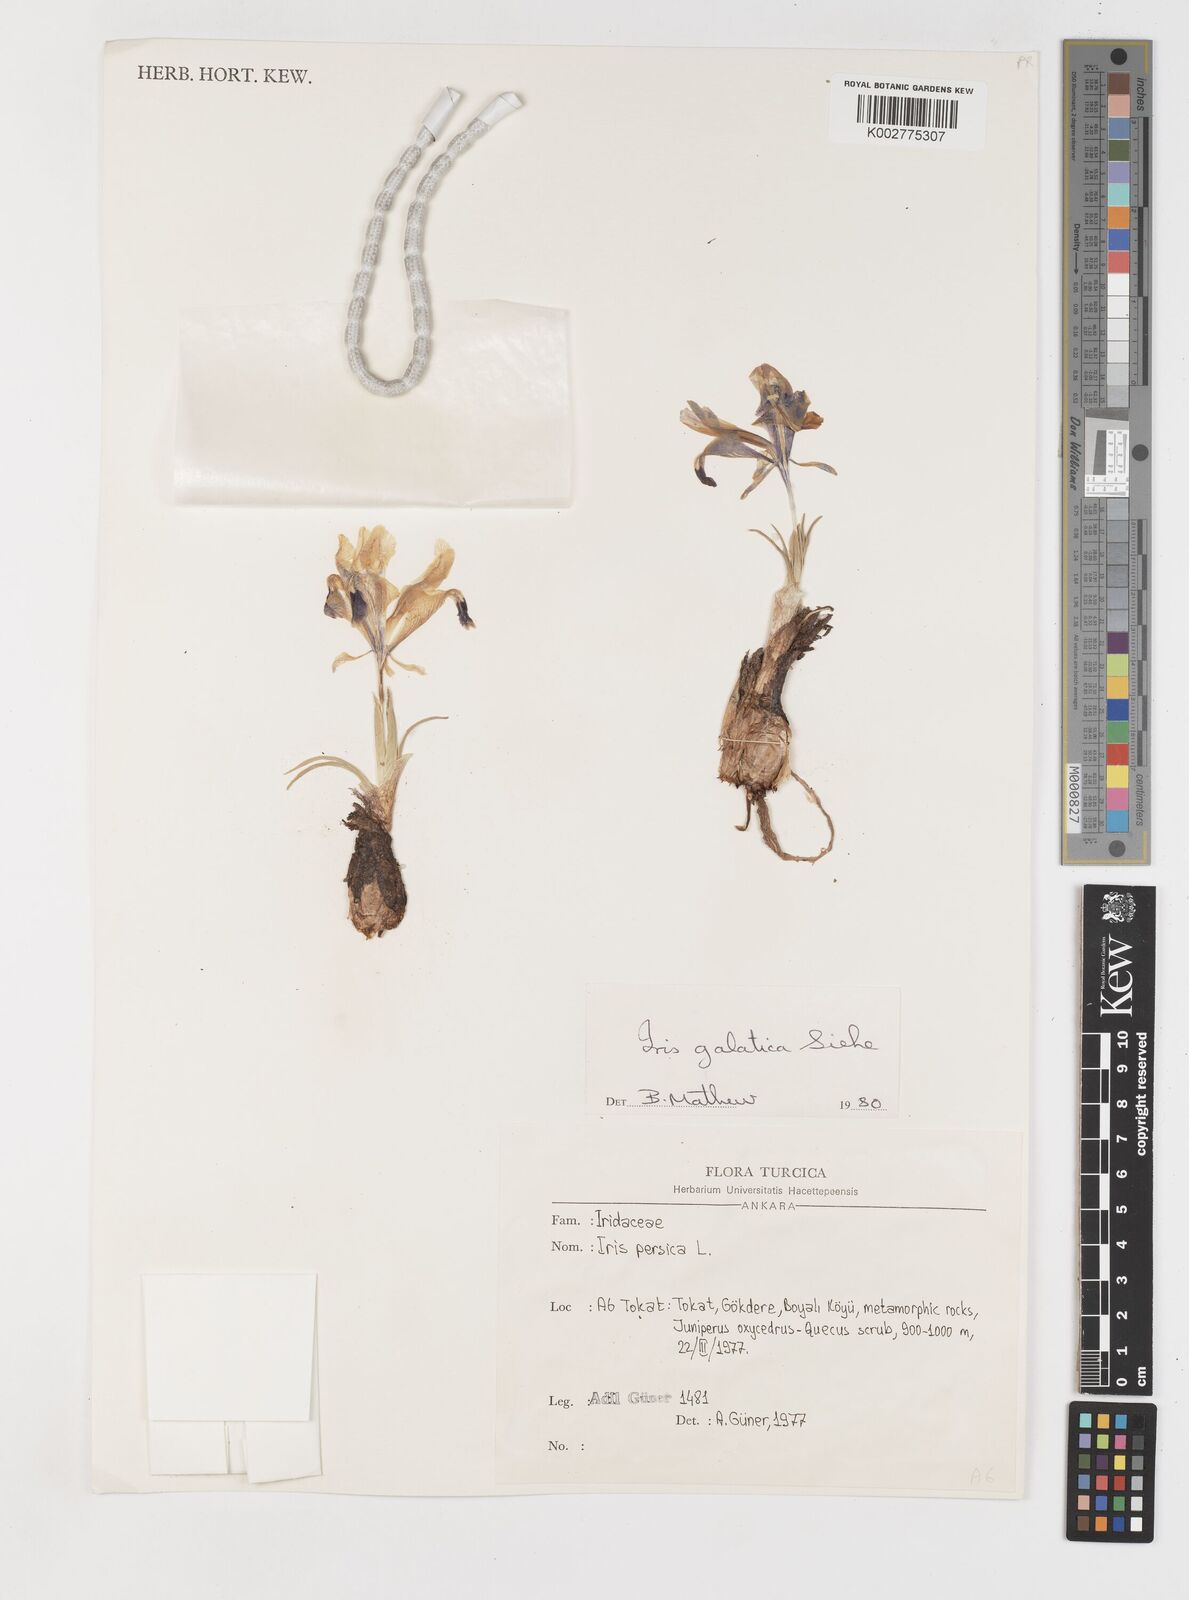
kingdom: Plantae
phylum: Tracheophyta
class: Liliopsida
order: Asparagales
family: Iridaceae
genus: Iris
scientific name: Iris
